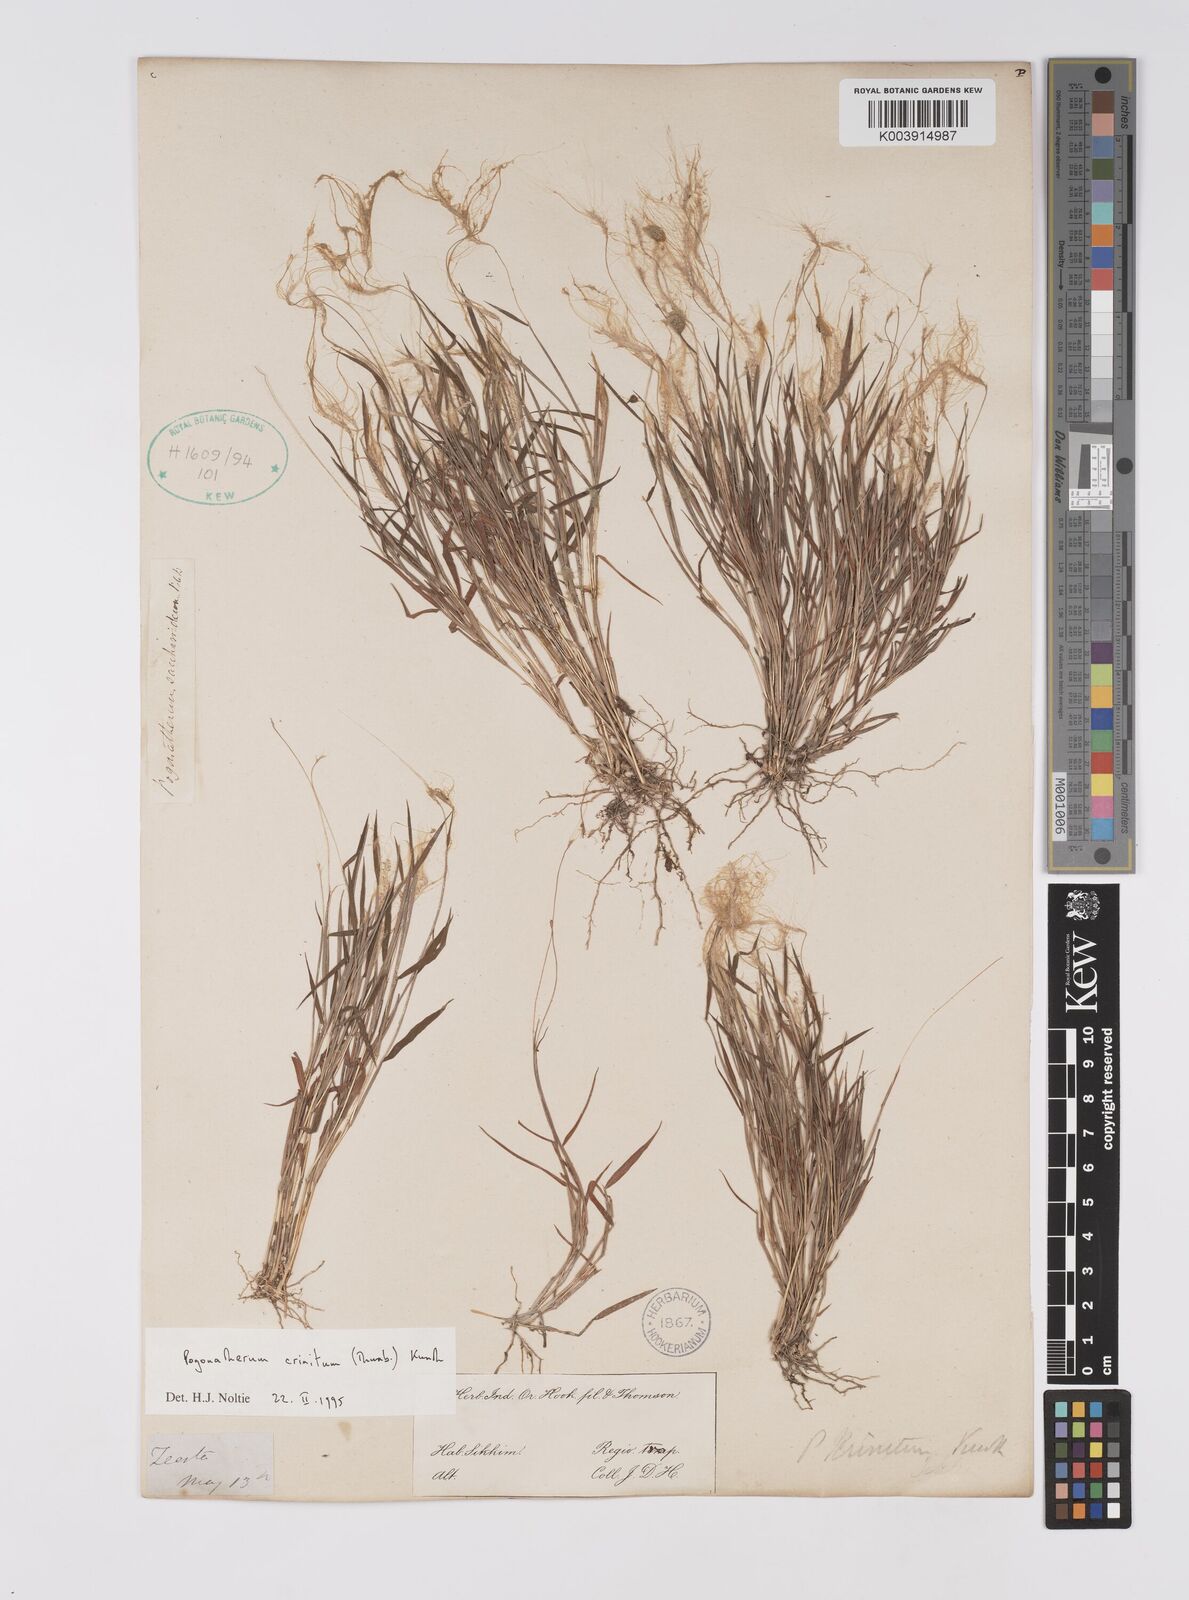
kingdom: Plantae
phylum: Tracheophyta
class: Liliopsida
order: Poales
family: Poaceae
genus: Pogonatherum
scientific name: Pogonatherum crinitum
